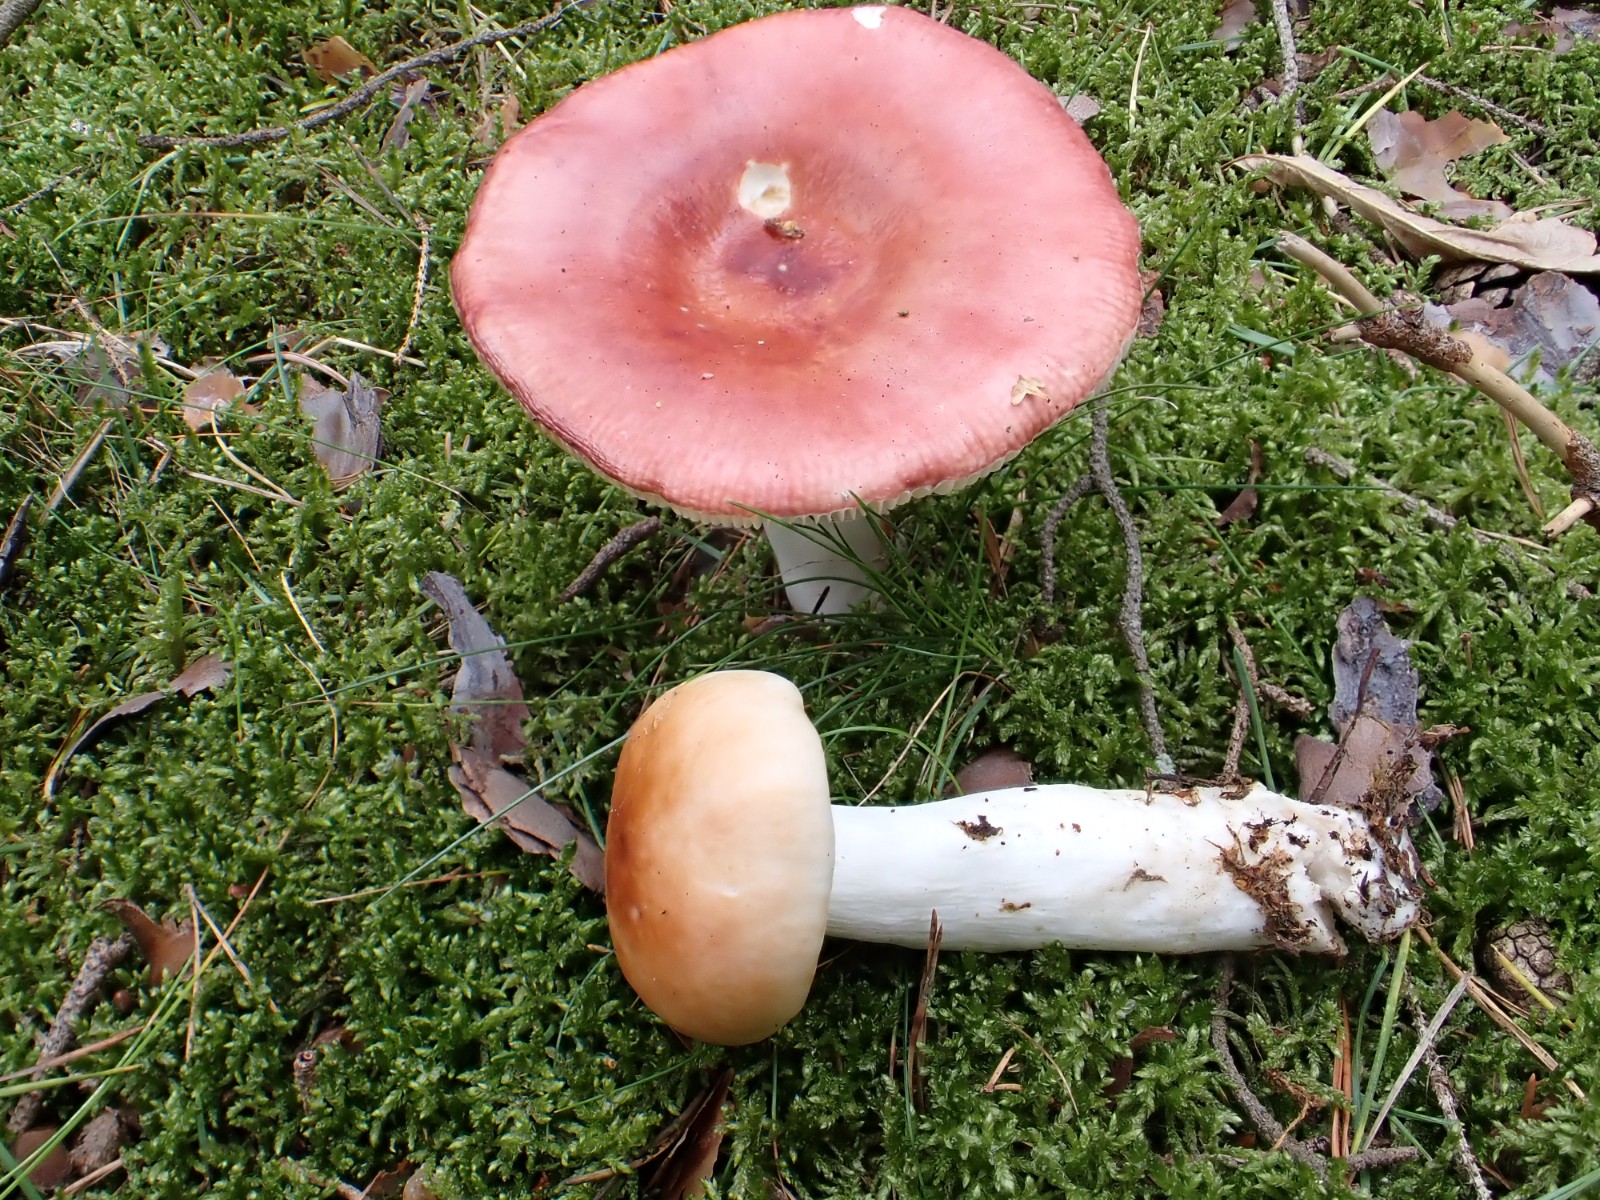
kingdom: Fungi
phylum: Basidiomycota
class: Agaricomycetes
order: Russulales
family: Russulaceae
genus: Russula
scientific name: Russula paludosa
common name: prægtig skørhat
